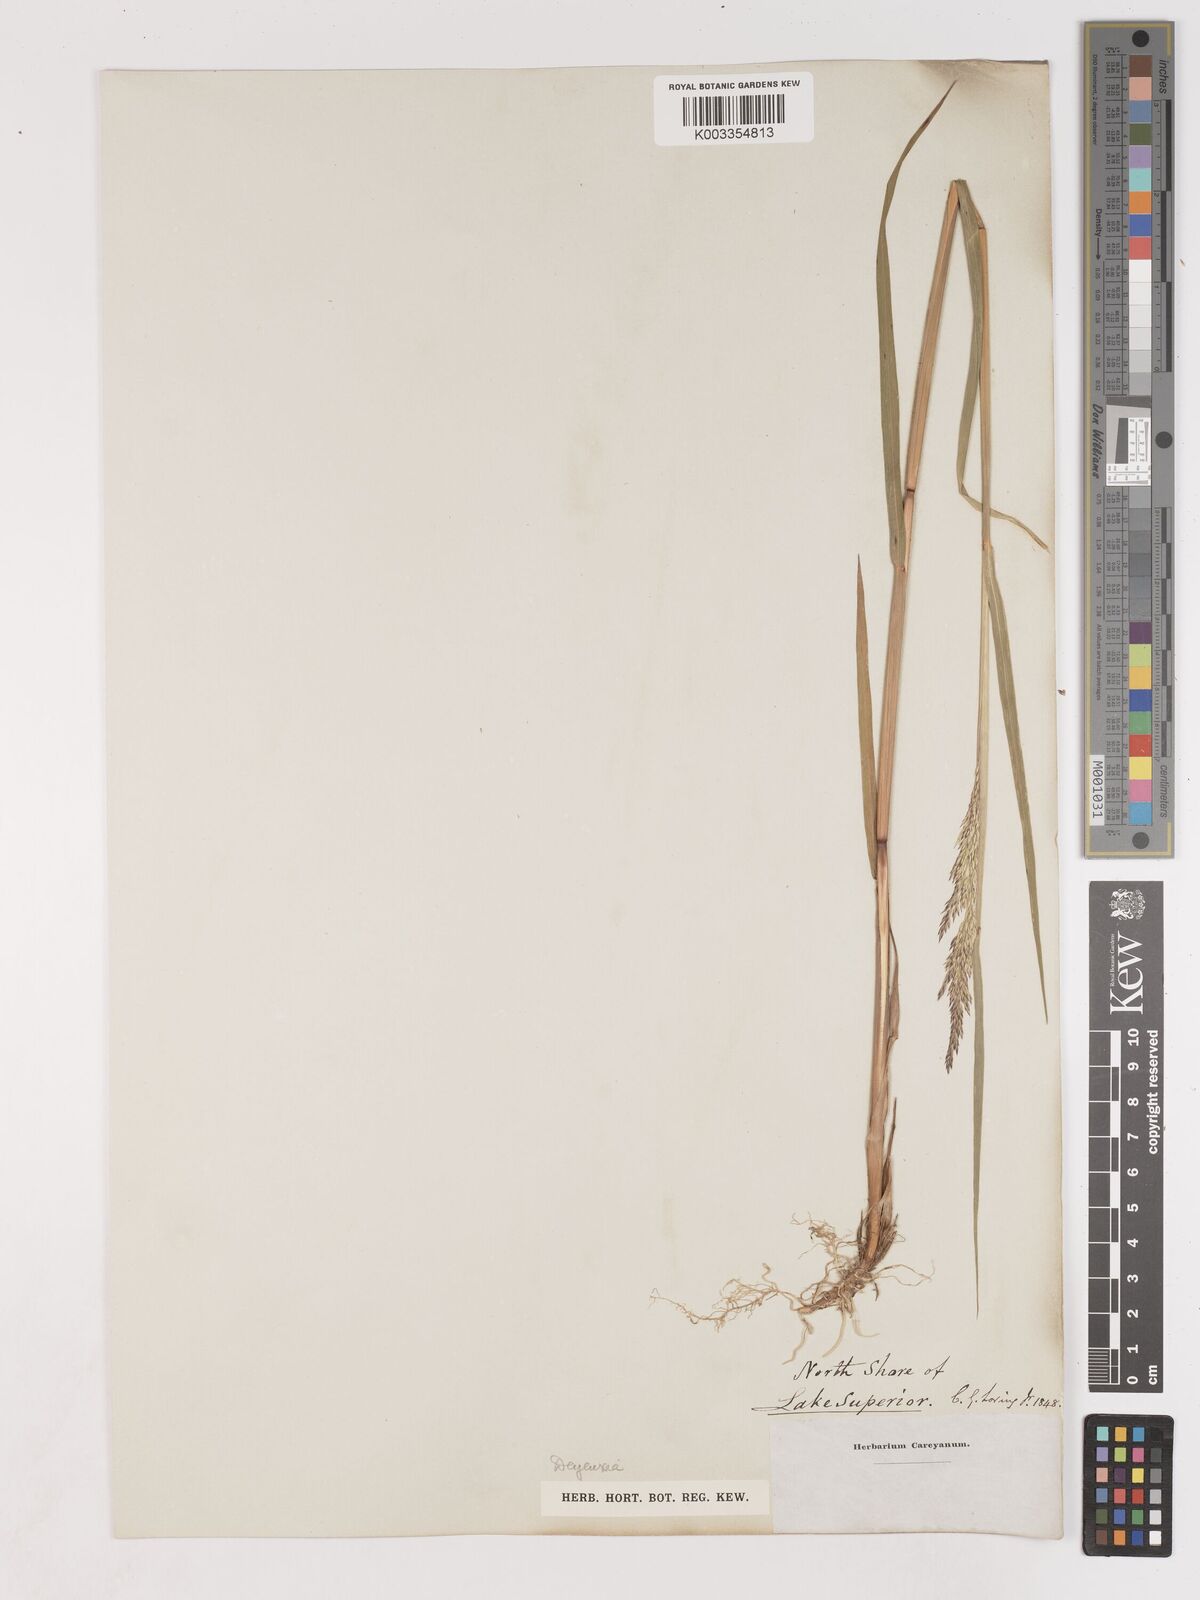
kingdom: Plantae
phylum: Tracheophyta
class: Liliopsida
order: Poales
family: Poaceae
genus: Calamagrostis
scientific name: Calamagrostis
